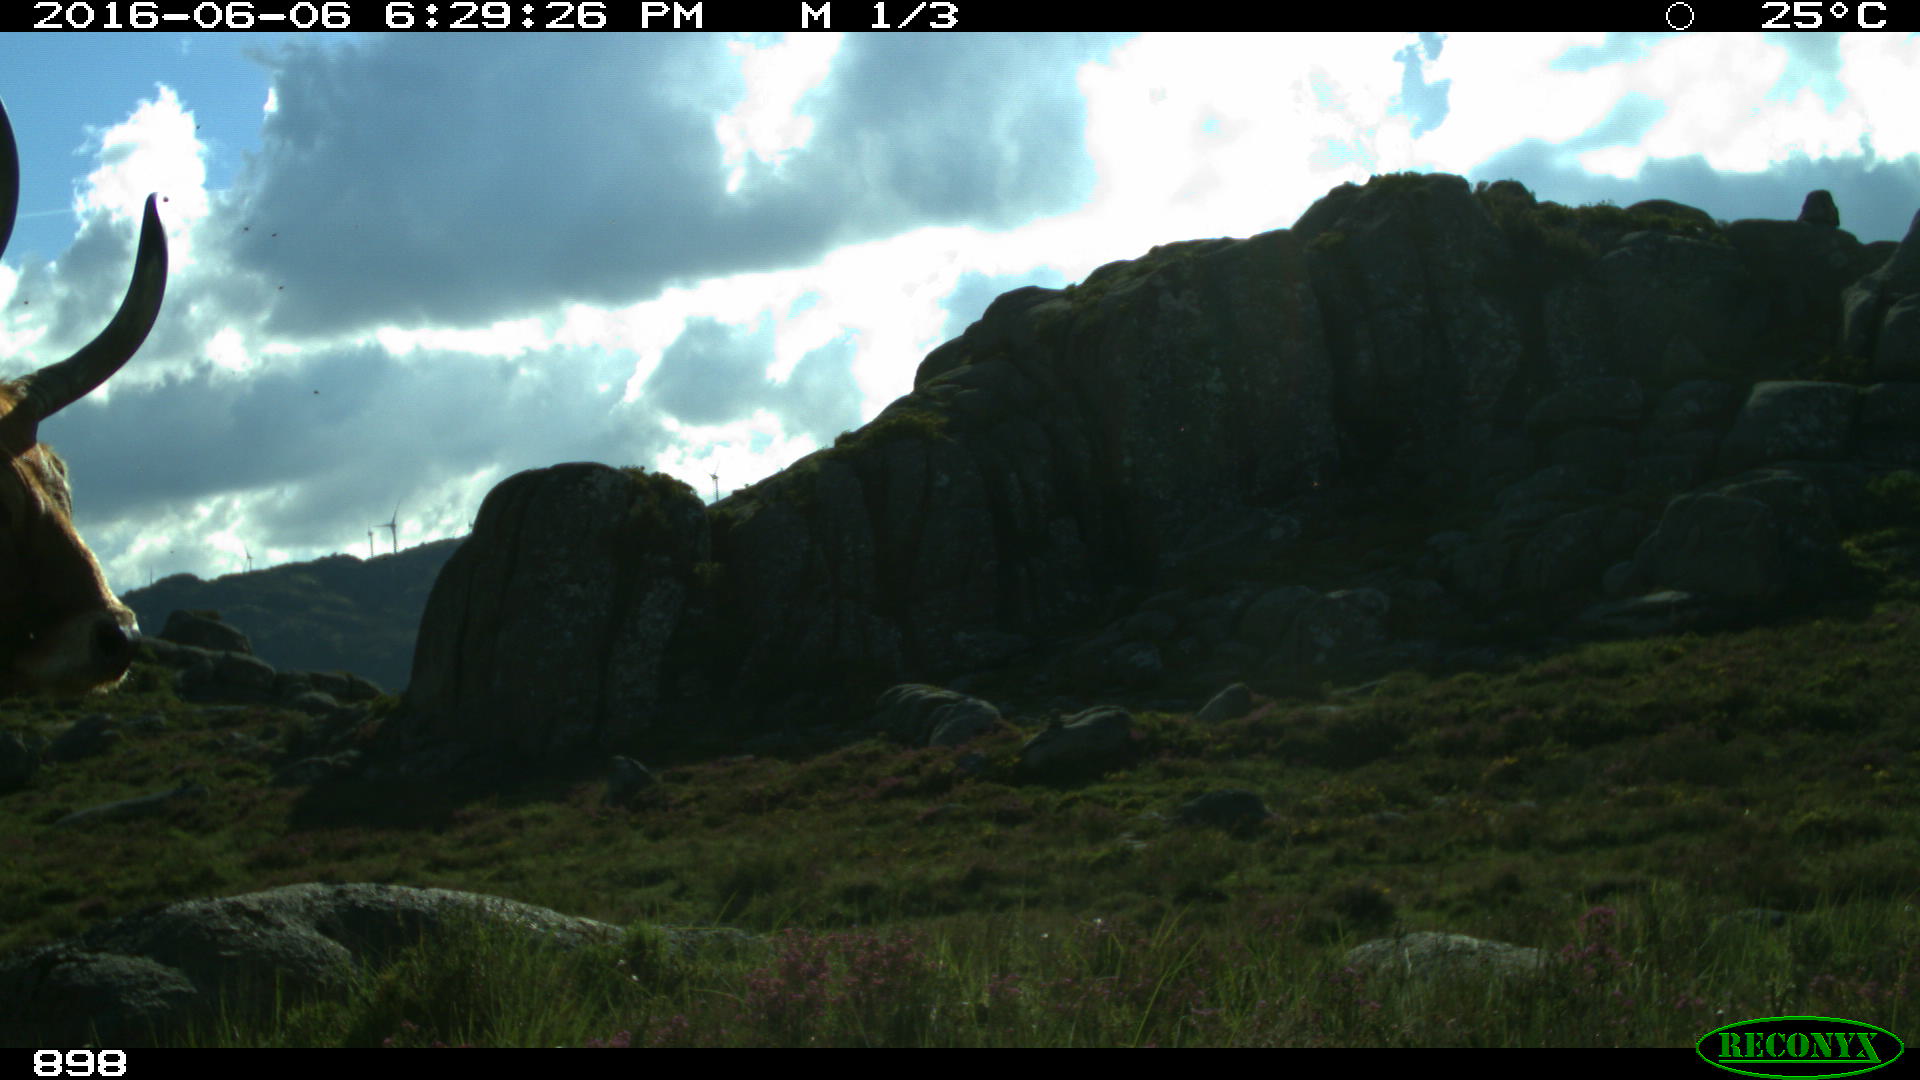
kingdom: Animalia
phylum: Chordata
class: Mammalia
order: Artiodactyla
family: Bovidae
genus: Bos
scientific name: Bos taurus
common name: Domesticated cattle
